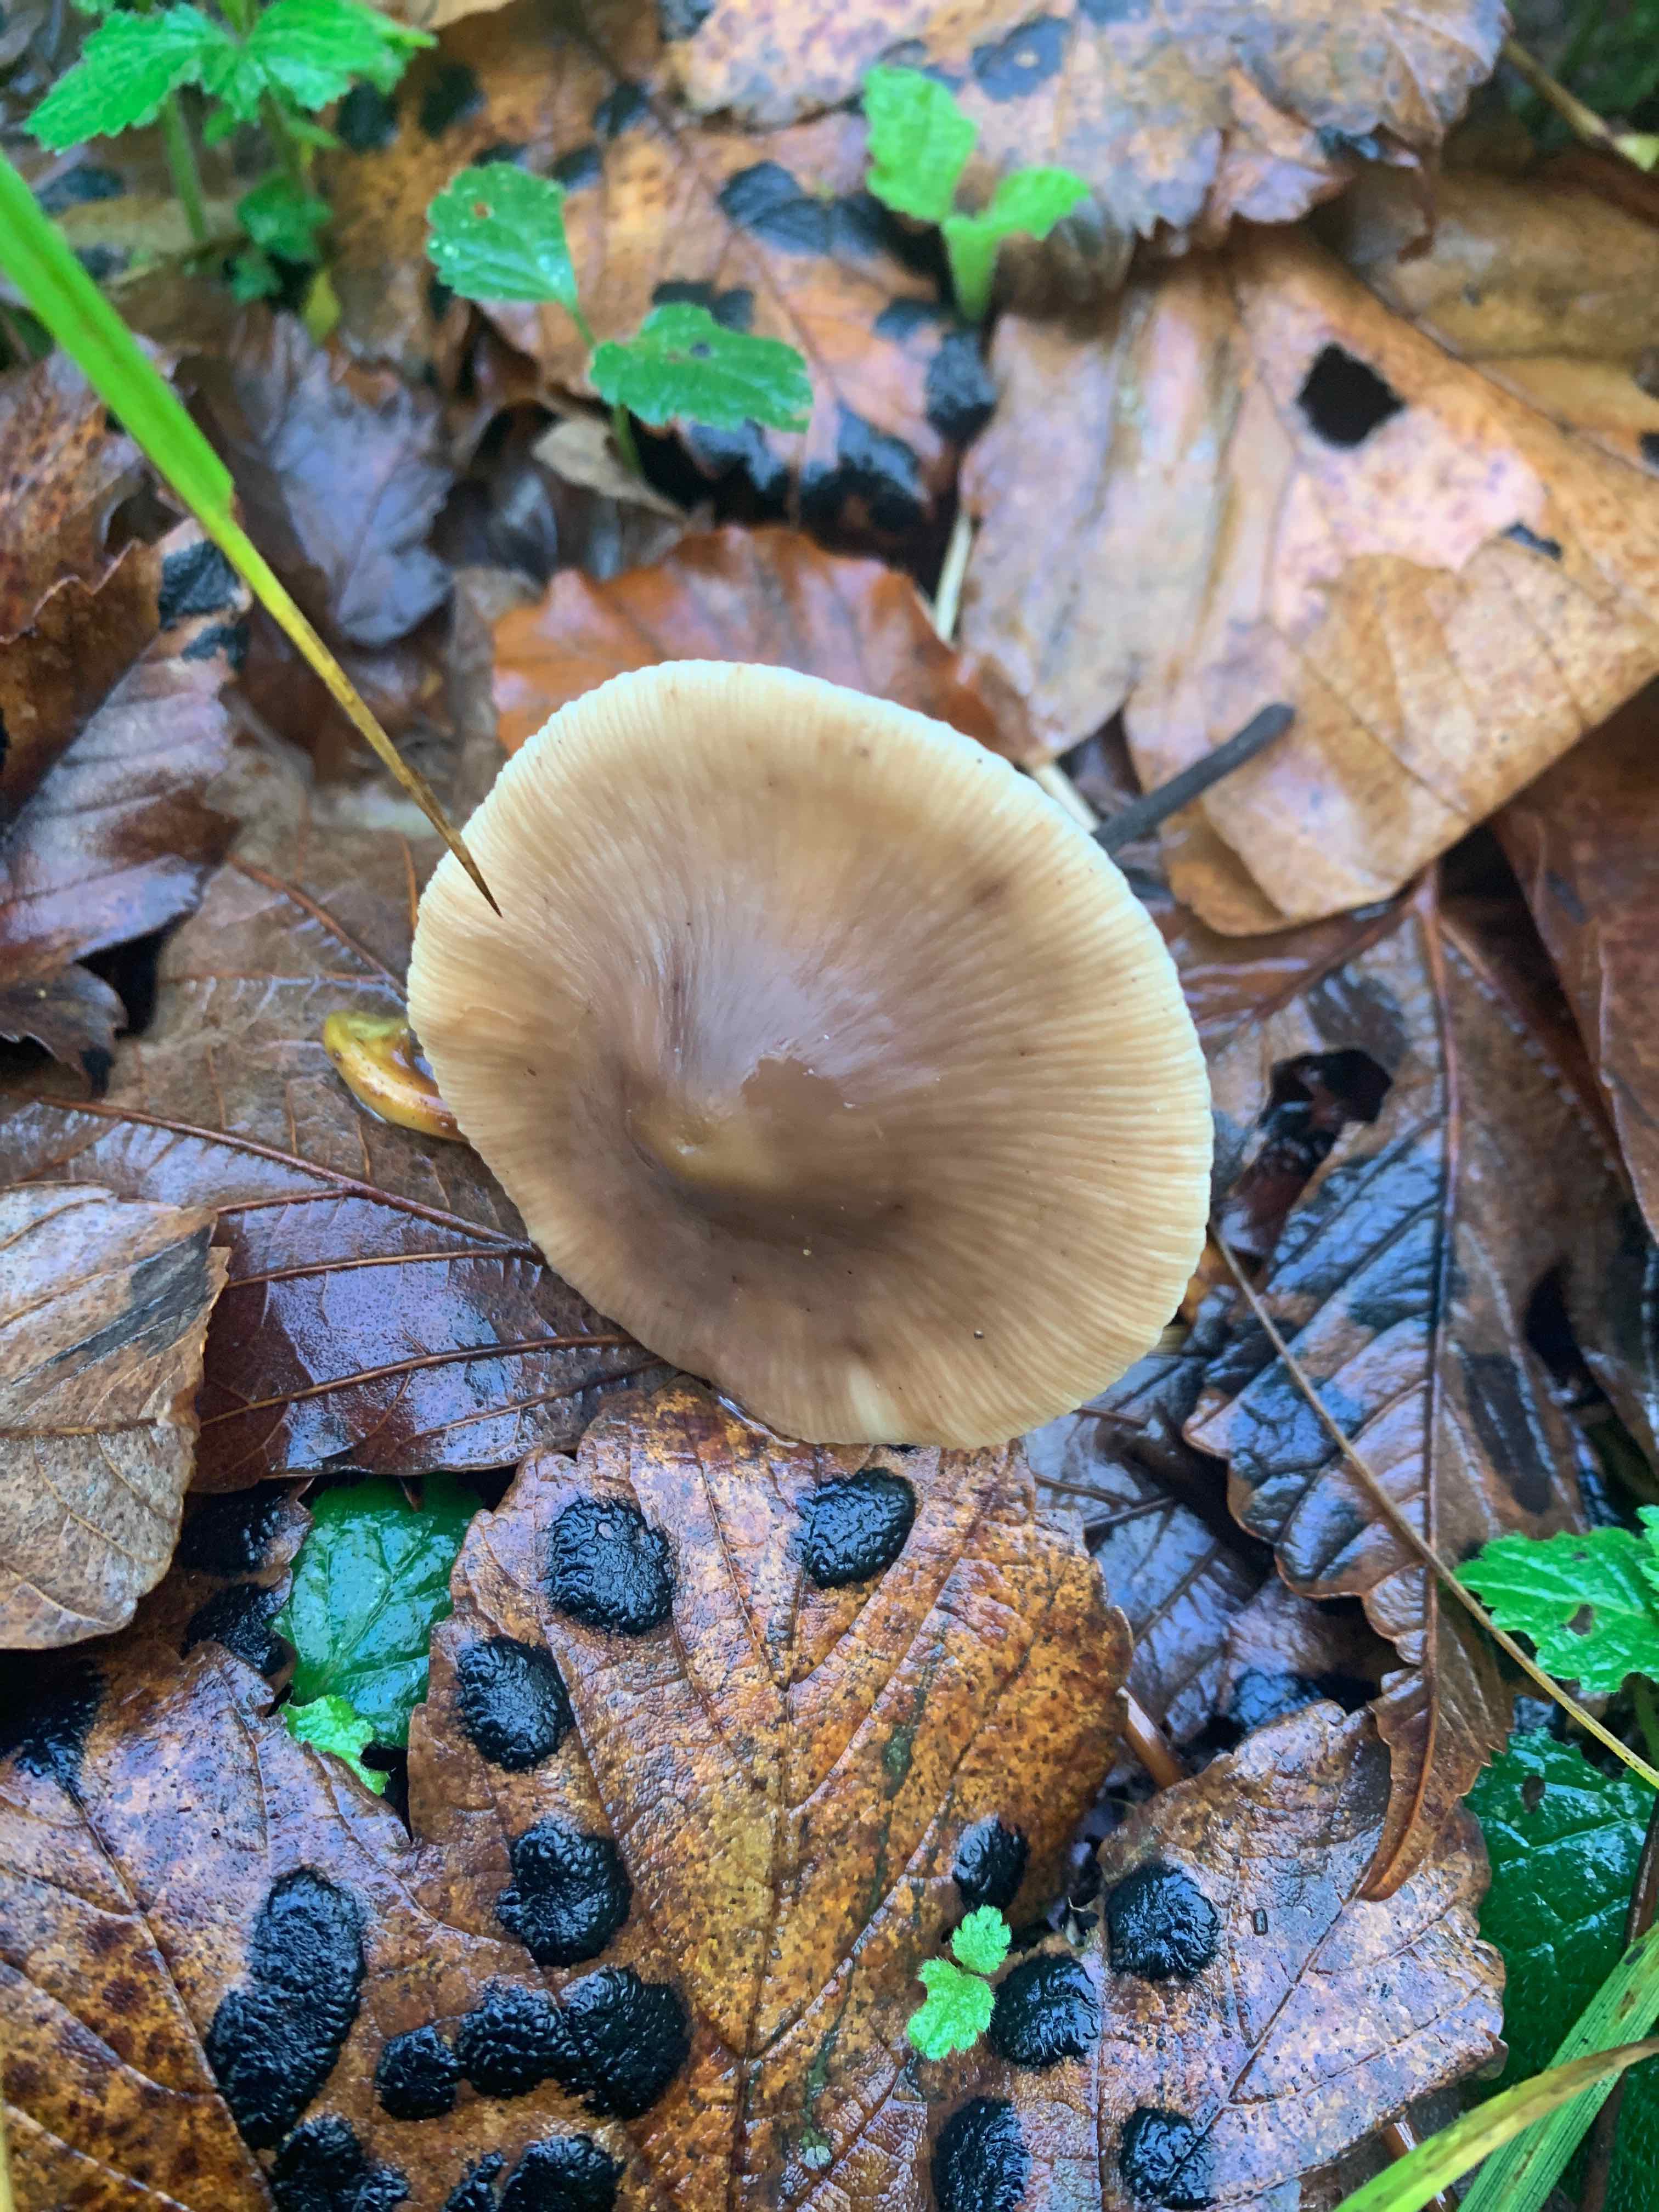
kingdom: Fungi
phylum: Basidiomycota
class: Agaricomycetes
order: Agaricales
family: Omphalotaceae
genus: Mycetinis
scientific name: Mycetinis alliaceus
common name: stor løghat
